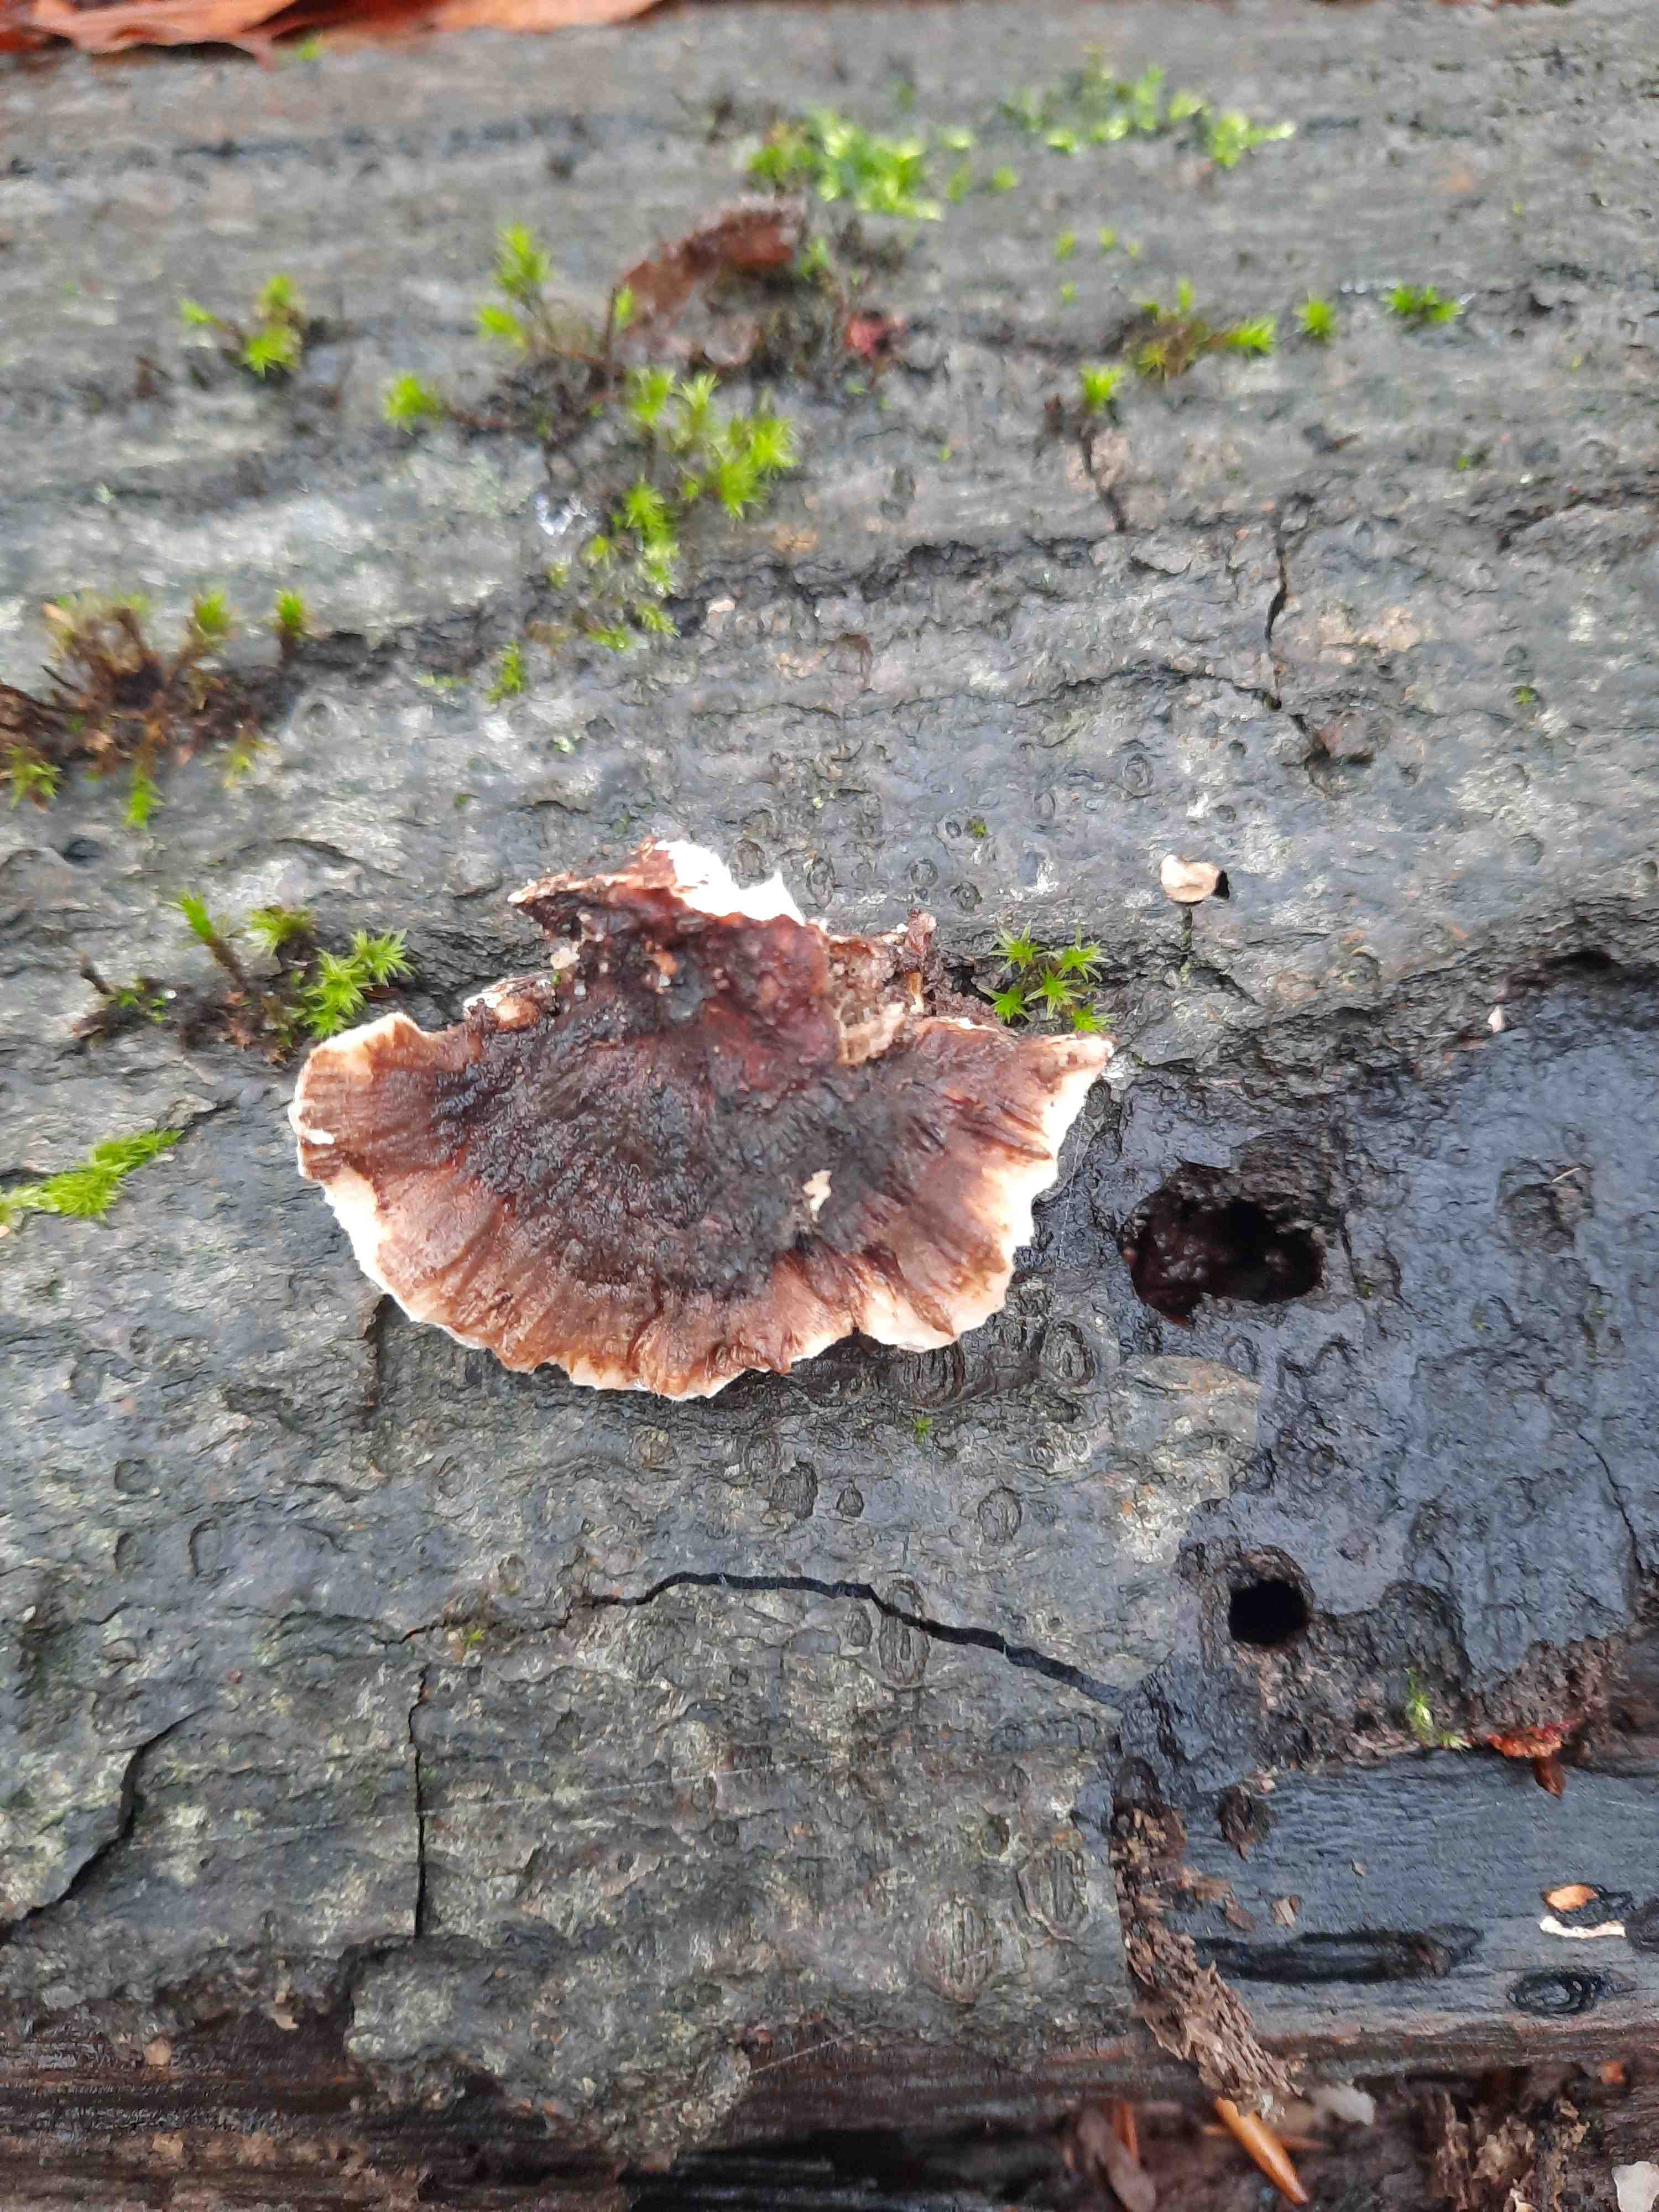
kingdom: Fungi
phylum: Basidiomycota
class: Agaricomycetes
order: Polyporales
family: Polyporaceae
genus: Trametes
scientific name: Trametes versicolor
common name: broget læderporesvamp
